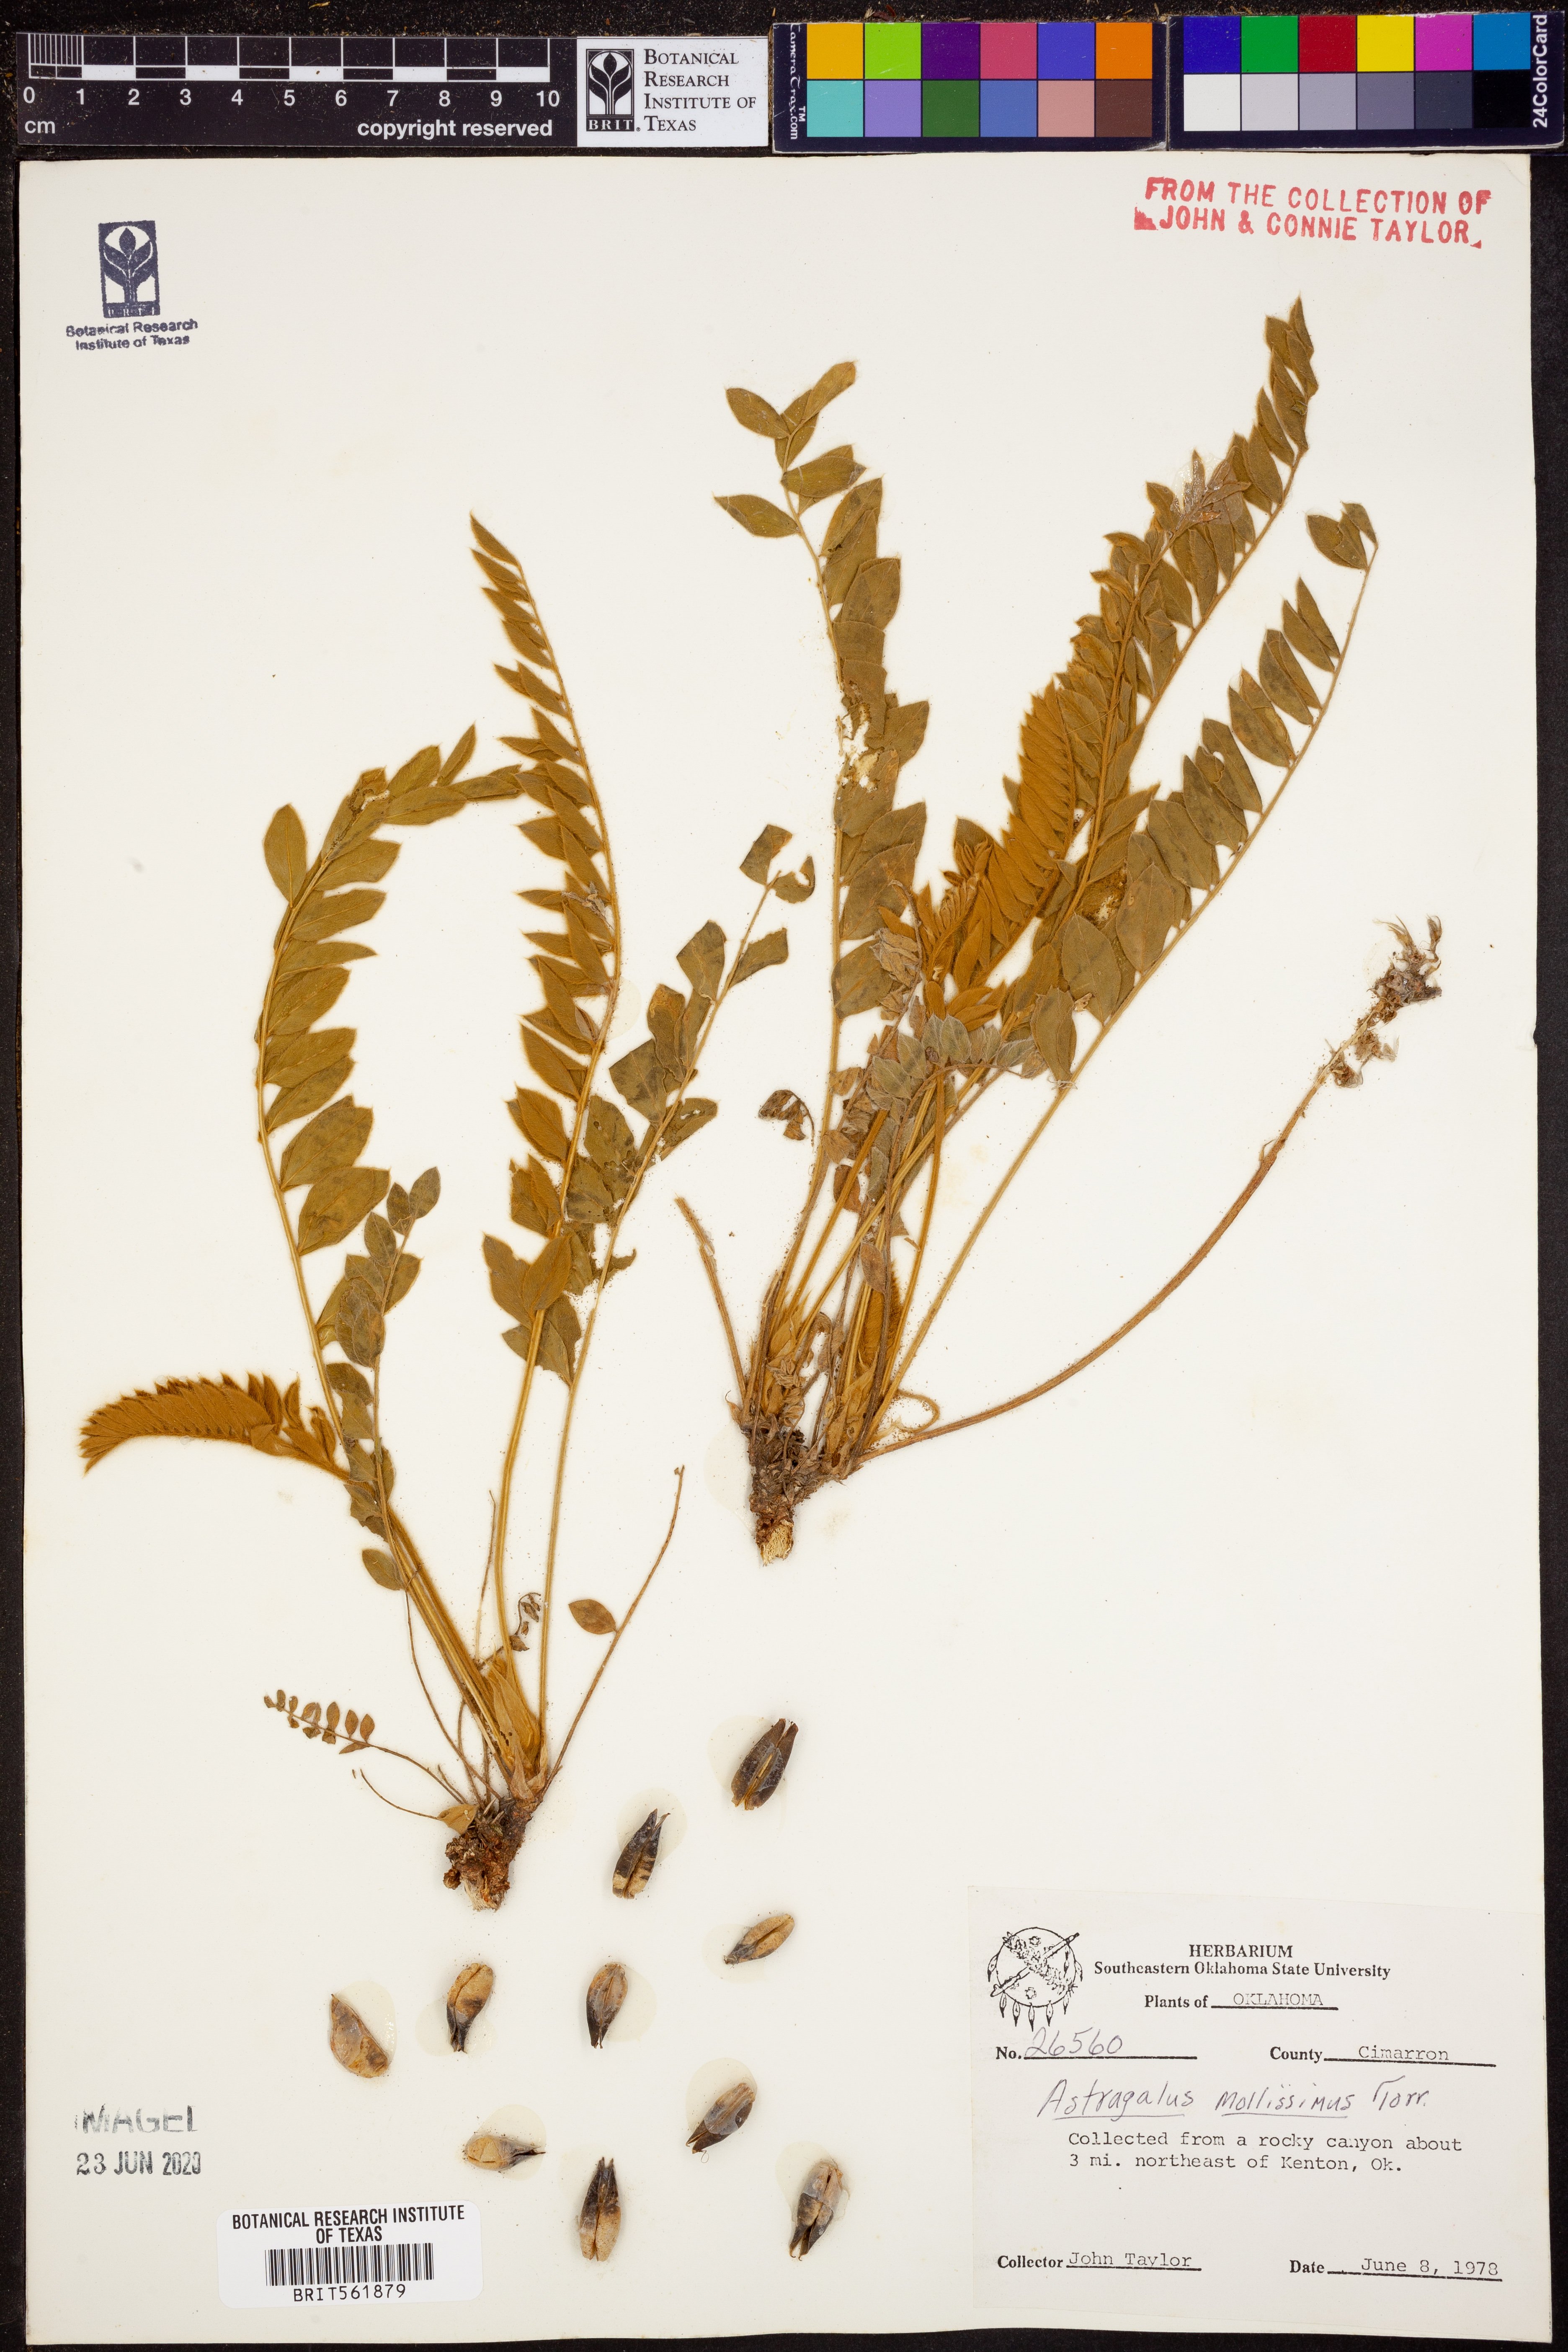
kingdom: Plantae
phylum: Tracheophyta
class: Magnoliopsida
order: Fabales
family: Fabaceae
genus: Astragalus
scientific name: Astragalus mollissimus
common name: Woolly locoweed
